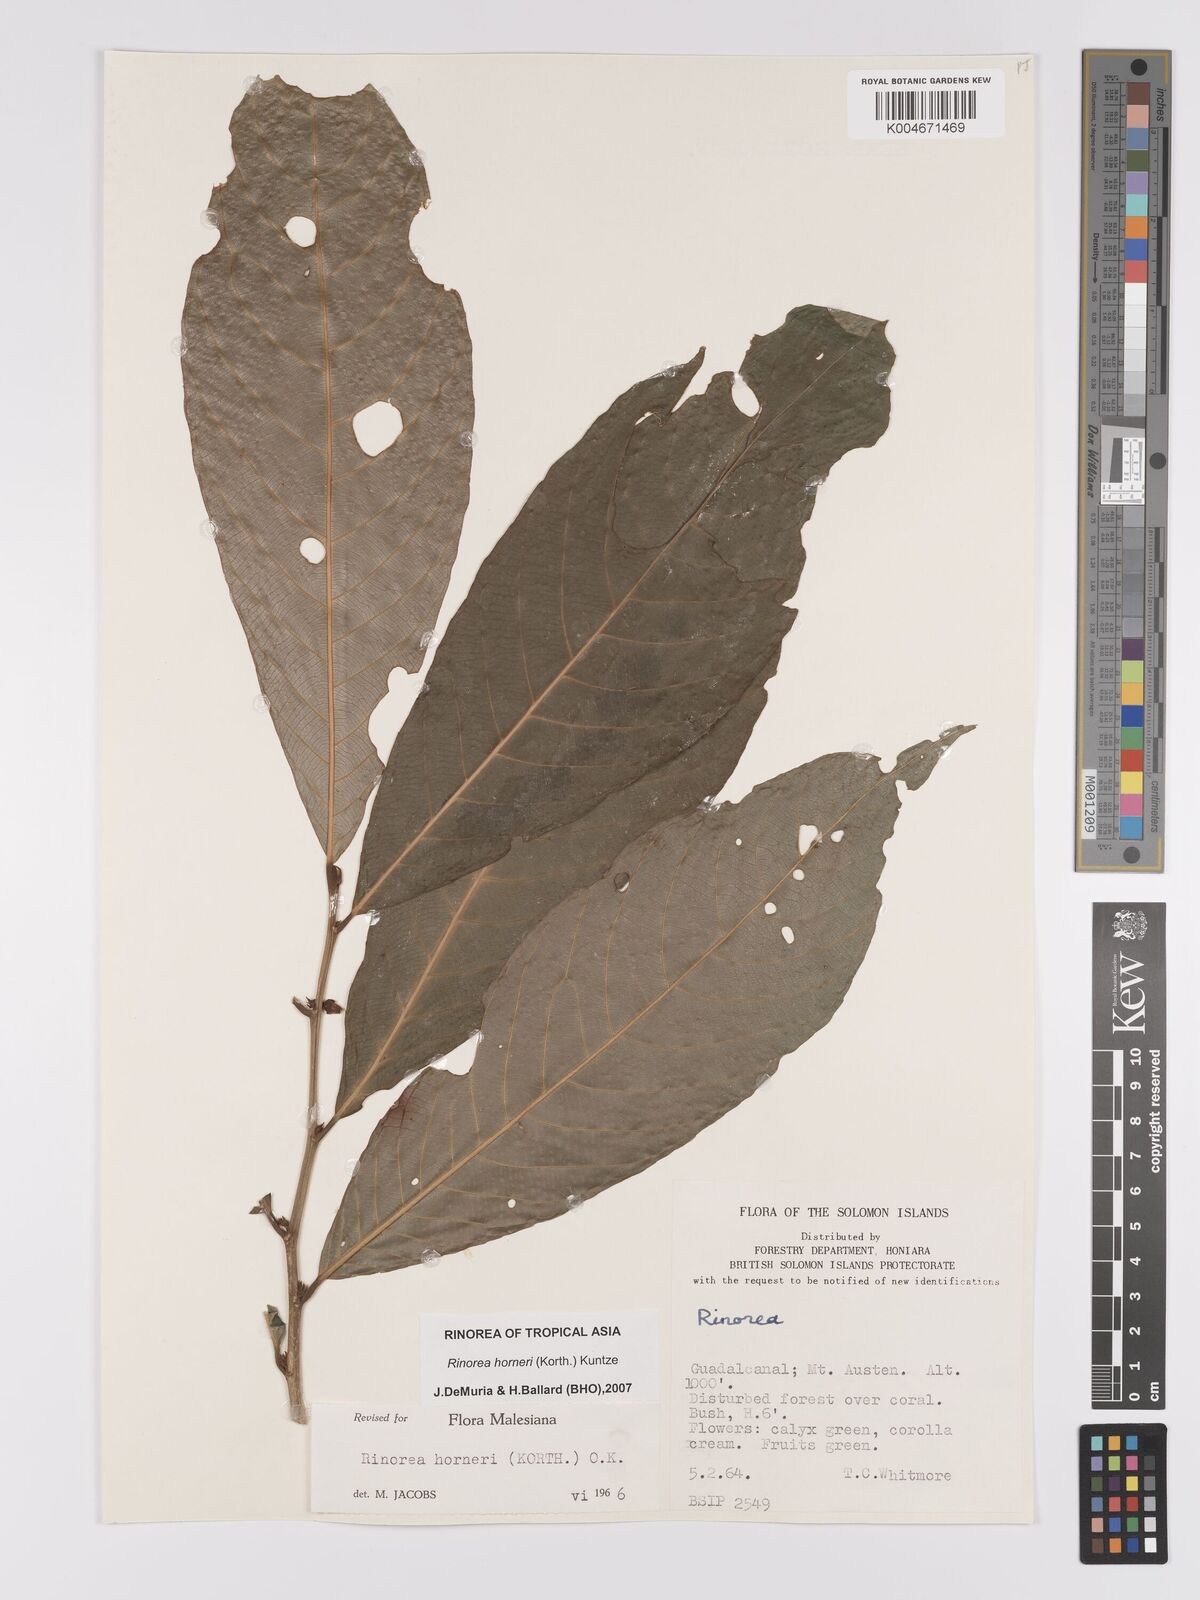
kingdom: Plantae
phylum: Tracheophyta
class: Magnoliopsida
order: Malpighiales
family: Violaceae
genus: Rinorea
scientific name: Rinorea horneri
